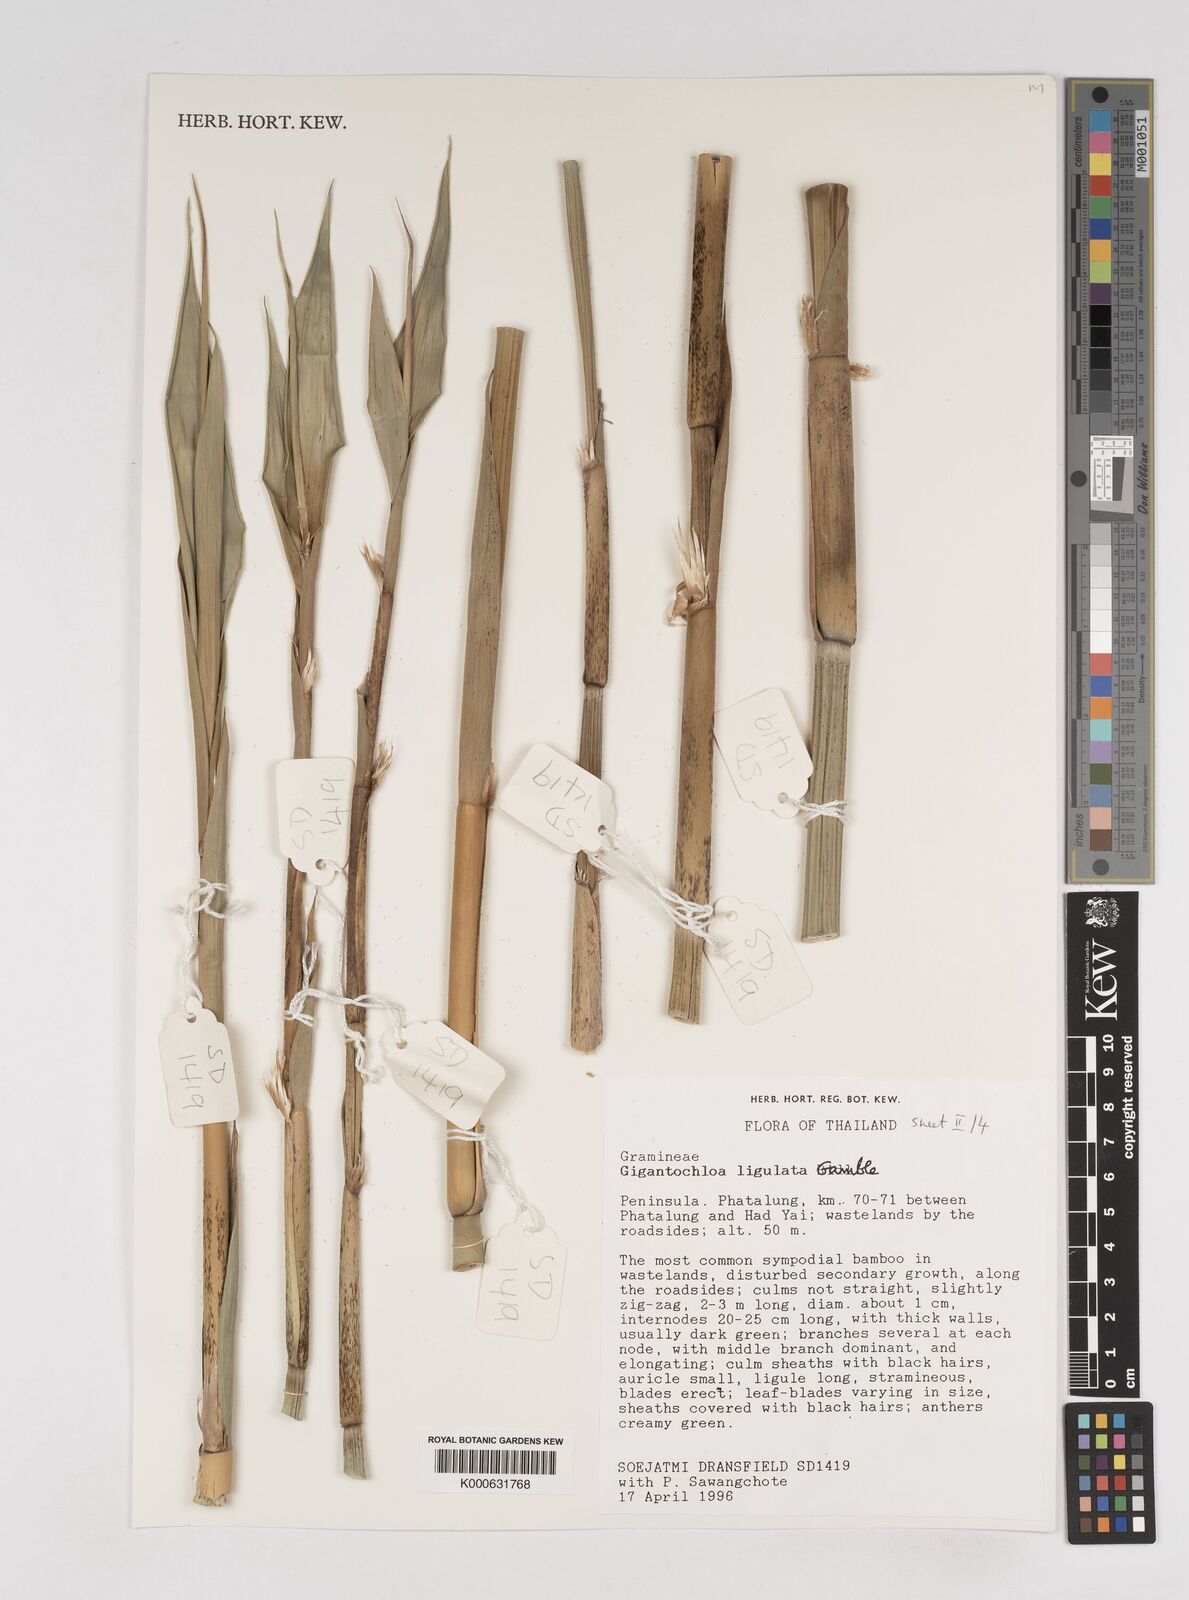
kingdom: Plantae
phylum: Tracheophyta
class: Liliopsida
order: Poales
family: Poaceae
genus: Gigantochloa
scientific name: Gigantochloa ligulata
